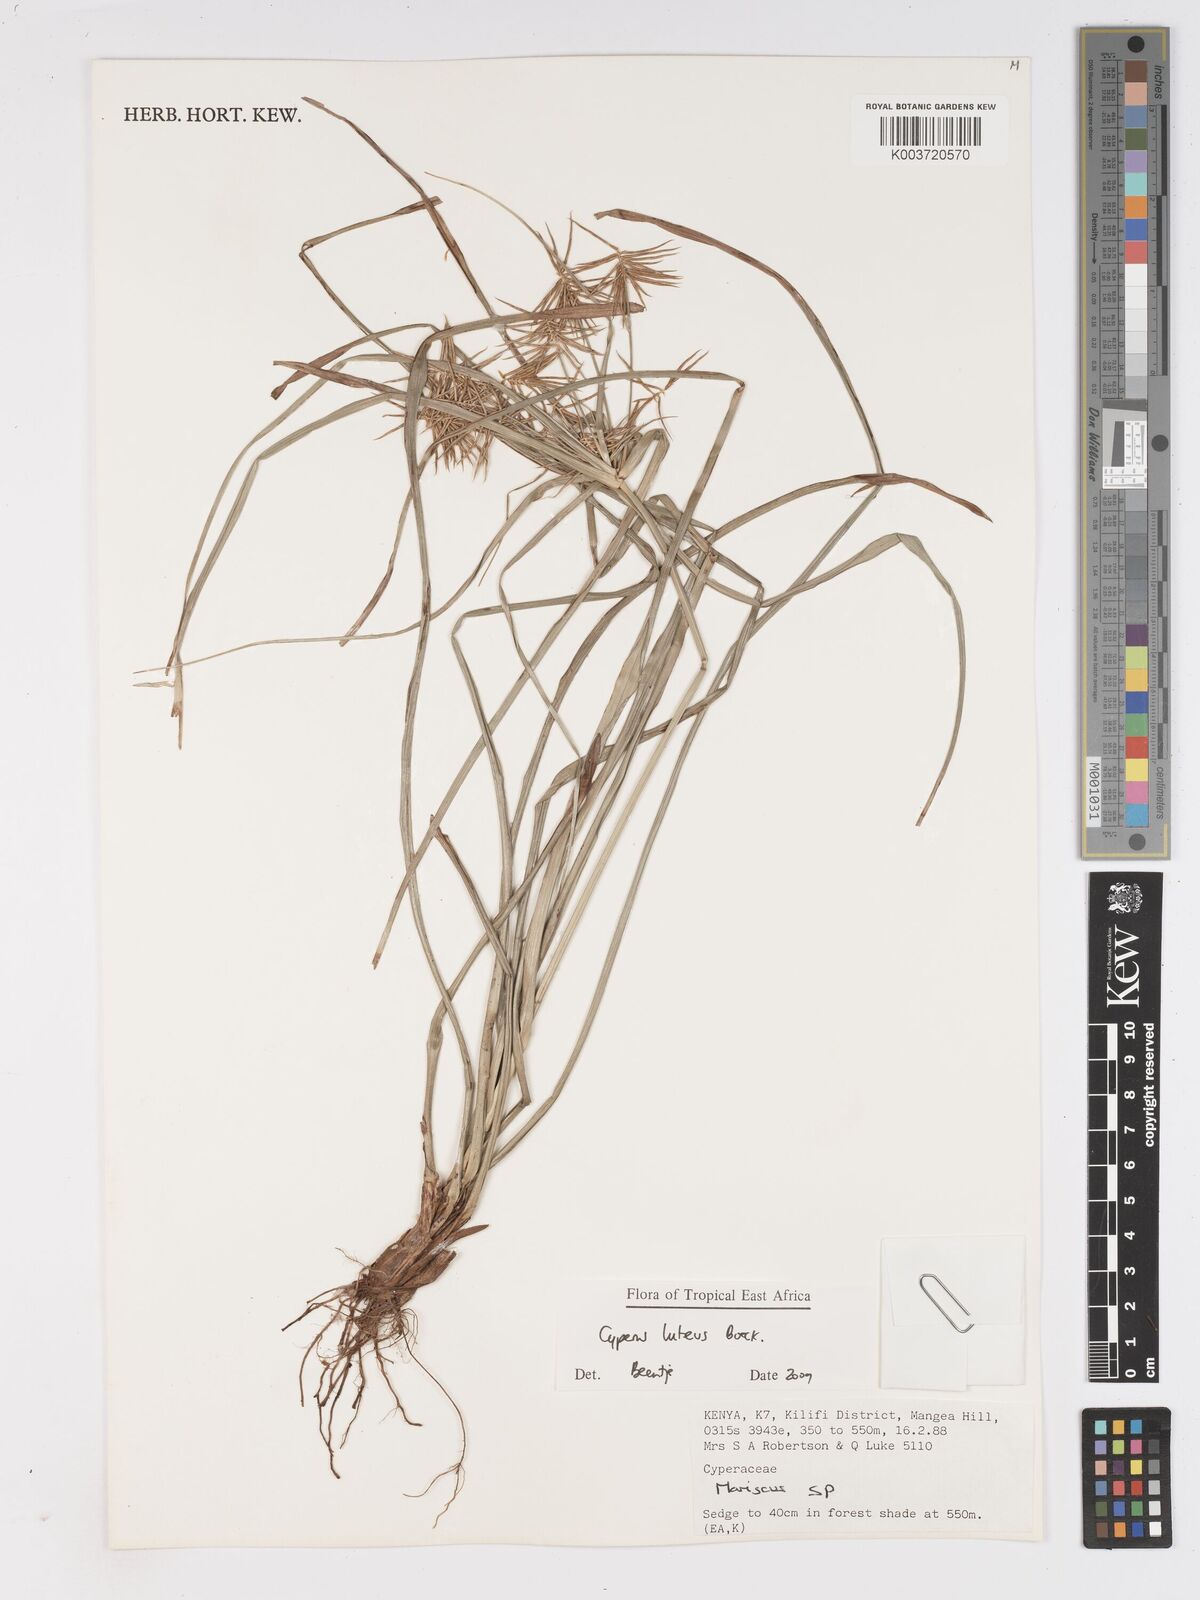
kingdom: Plantae
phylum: Tracheophyta
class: Liliopsida
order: Poales
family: Cyperaceae
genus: Cyperus
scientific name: Cyperus luteus
